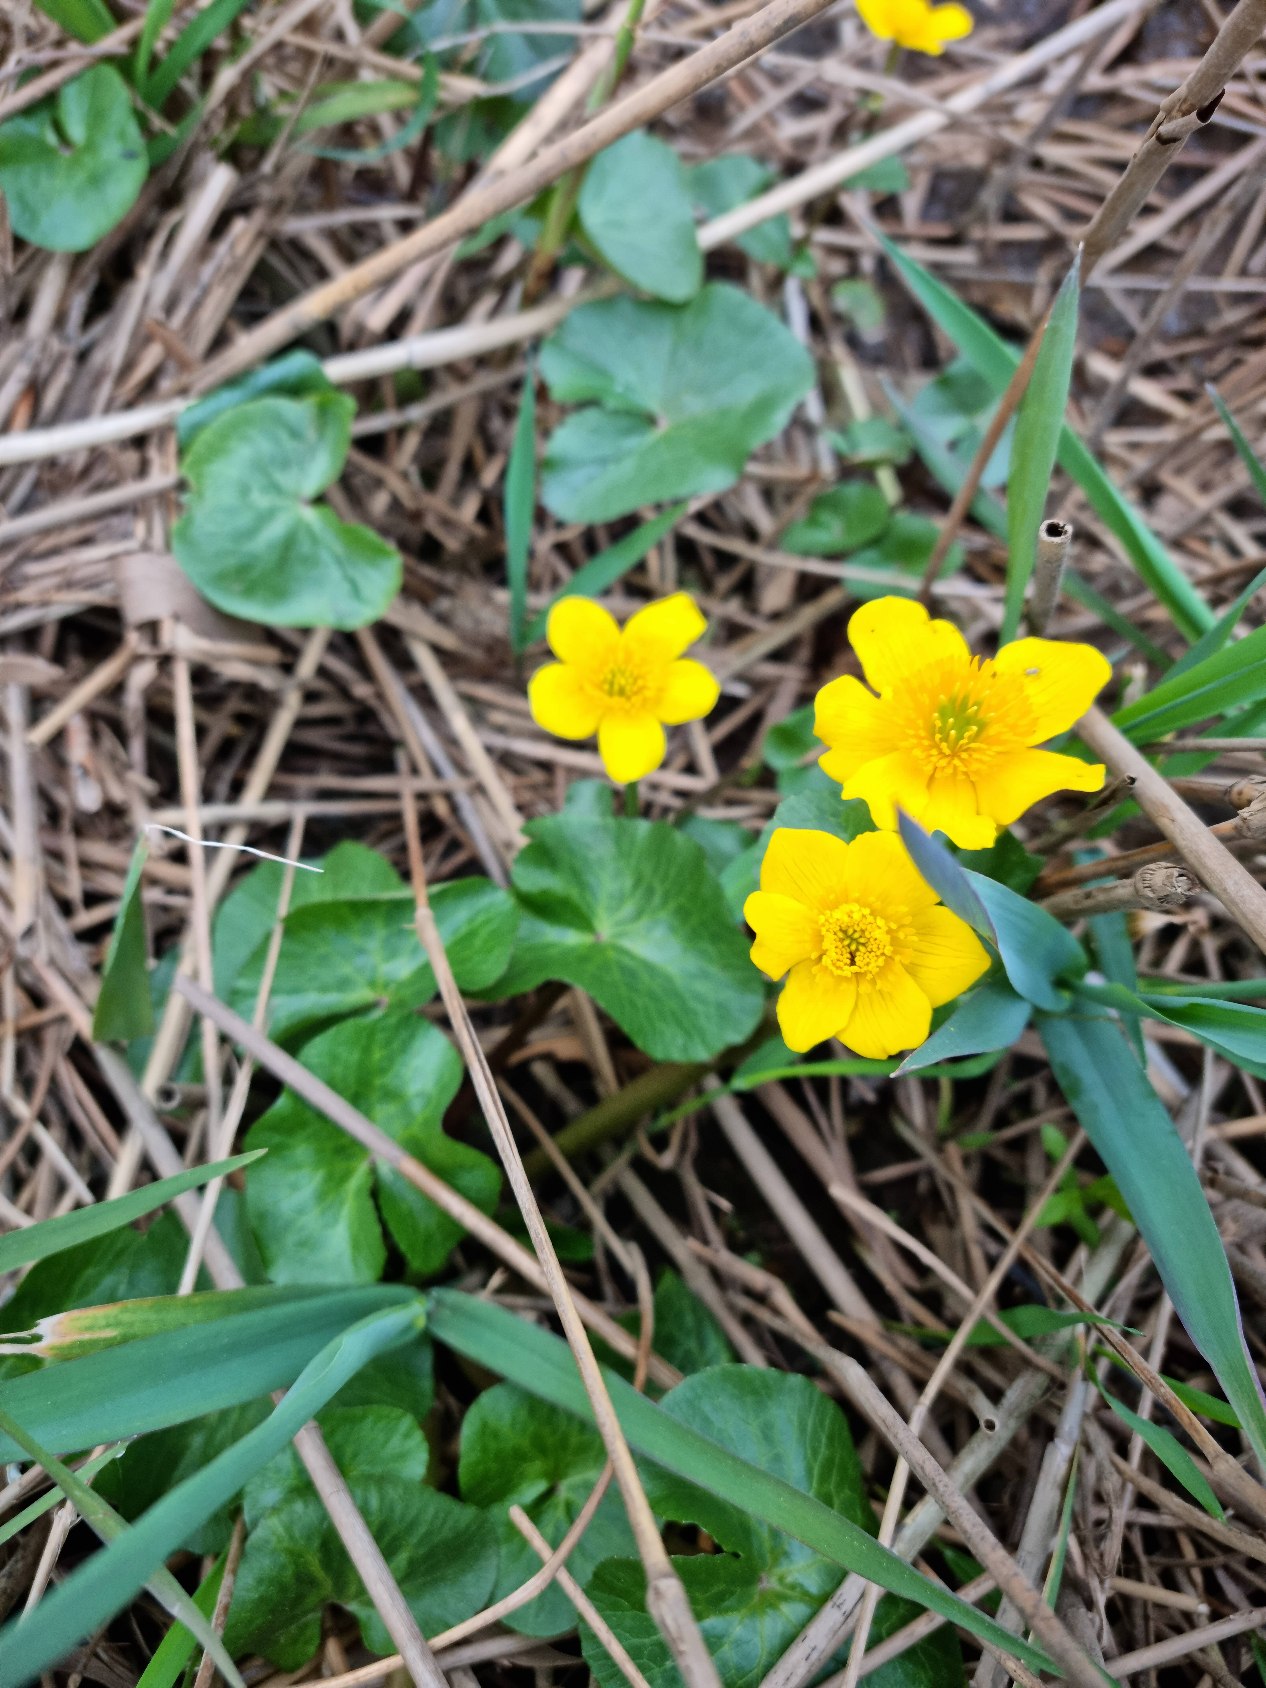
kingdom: Plantae
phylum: Tracheophyta
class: Magnoliopsida
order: Ranunculales
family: Ranunculaceae
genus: Caltha
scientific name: Caltha palustris
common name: Eng-kabbeleje
